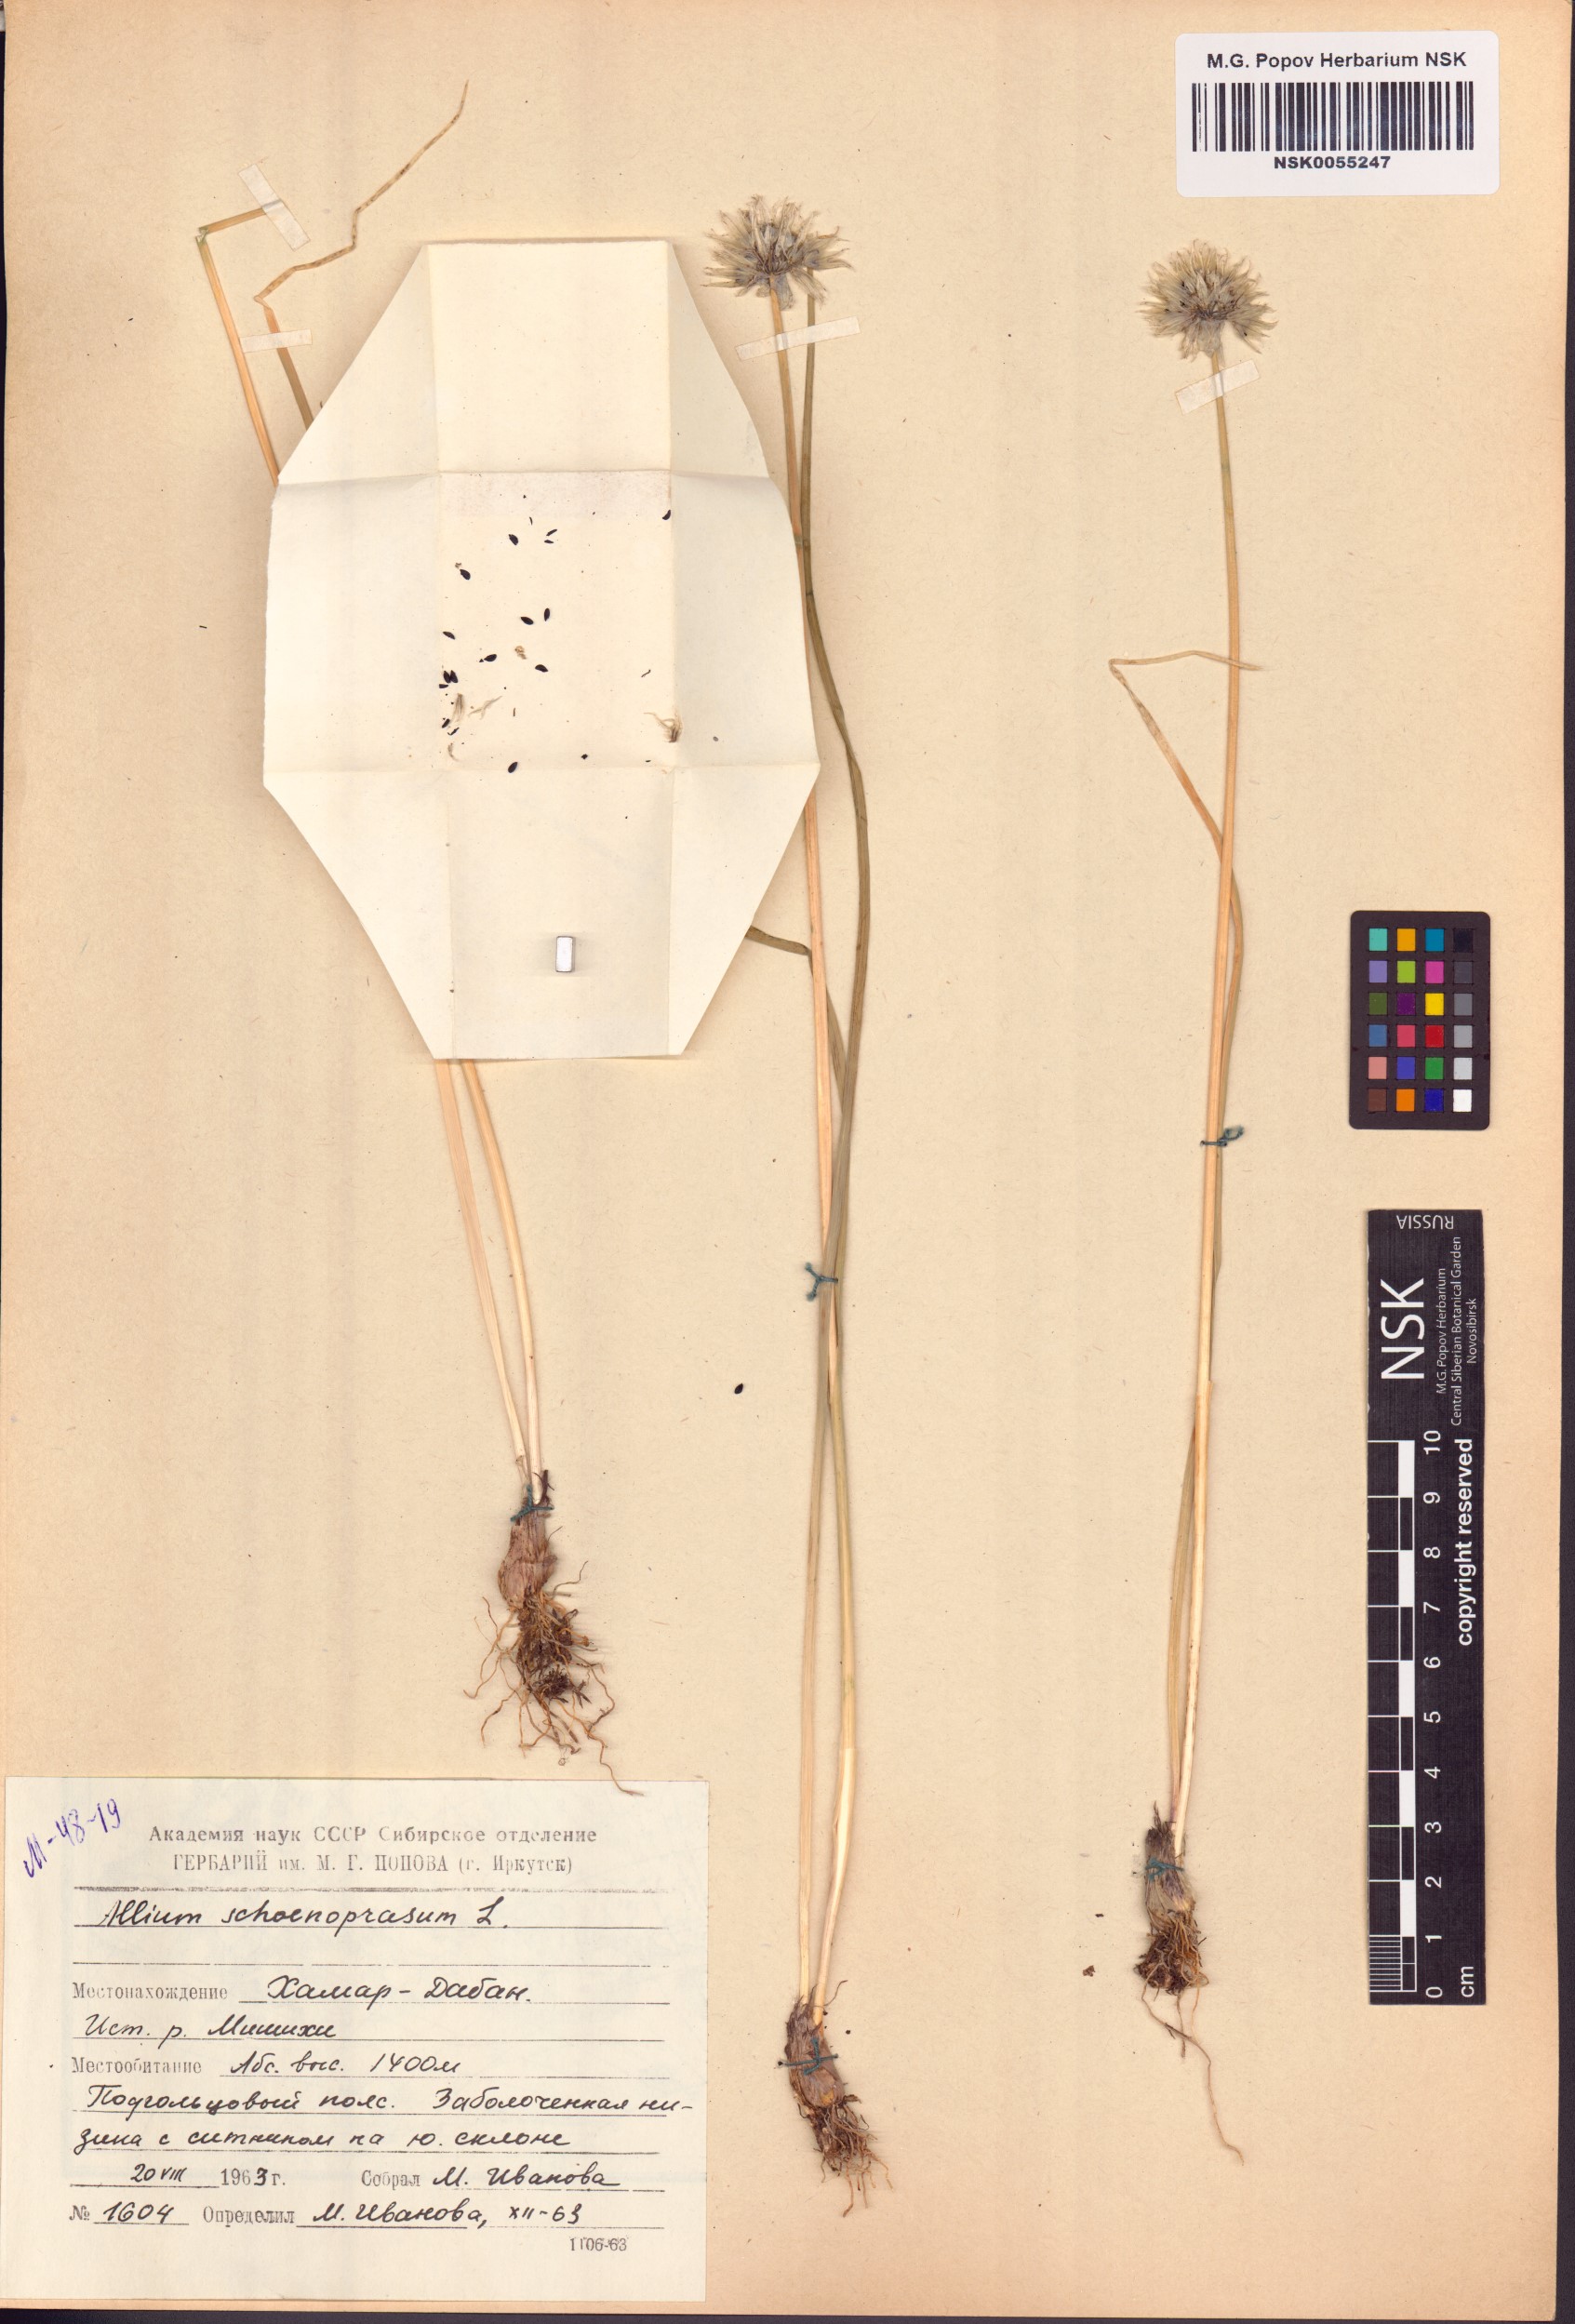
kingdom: Plantae
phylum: Tracheophyta
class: Liliopsida
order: Asparagales
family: Amaryllidaceae
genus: Allium
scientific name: Allium schoenoprasum
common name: Chives
